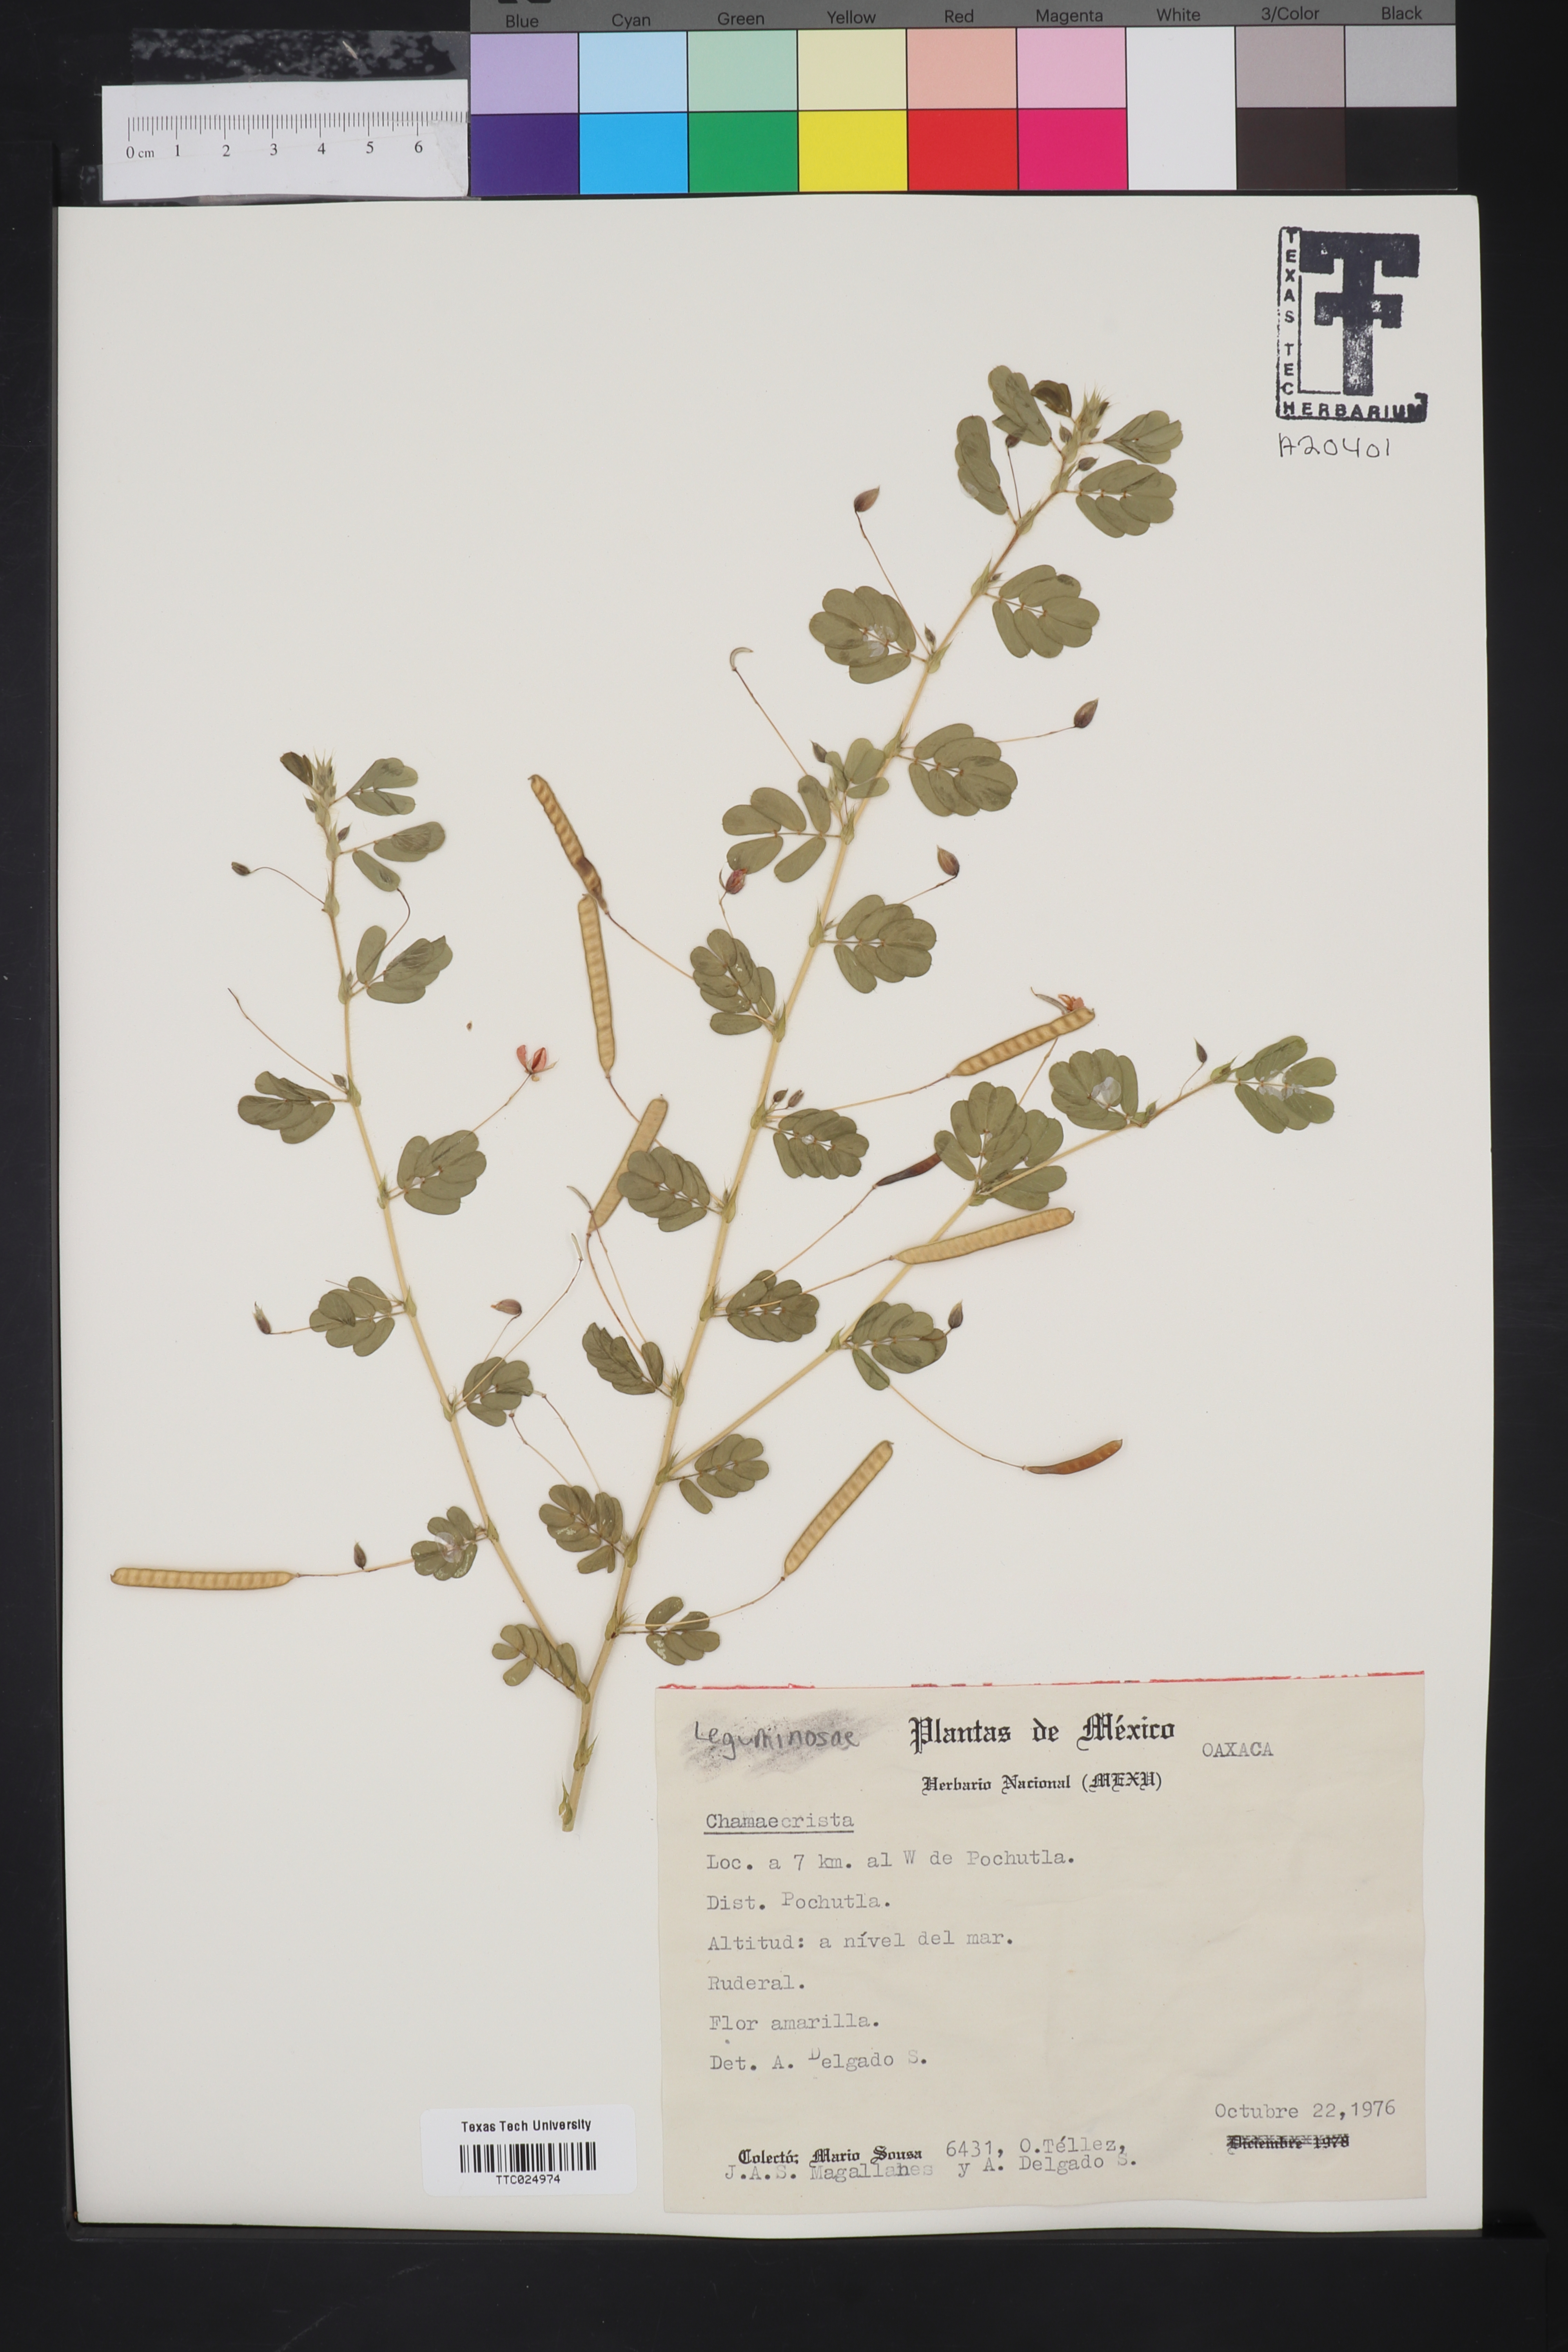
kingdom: Plantae
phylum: Tracheophyta
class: Magnoliopsida
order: Fabales
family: Fabaceae
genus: Chamaecrista
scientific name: Chamaecrista
